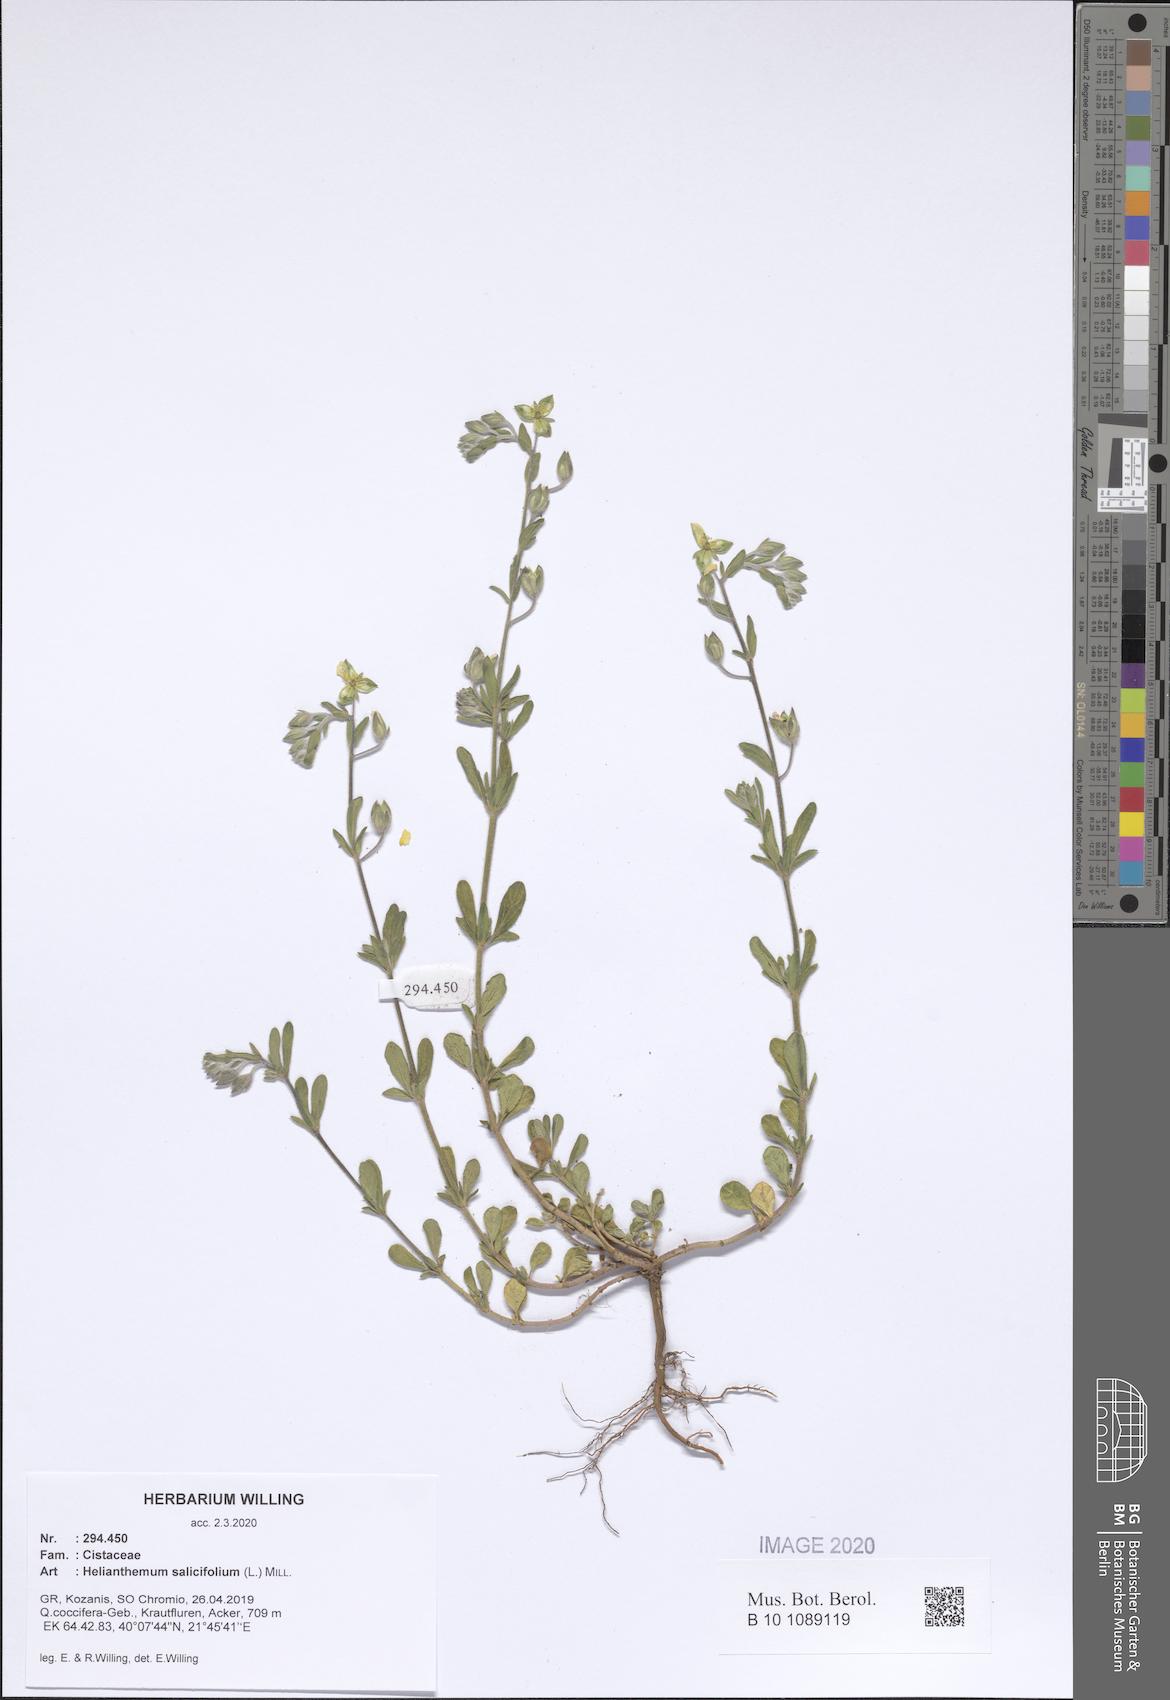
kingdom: Plantae
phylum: Tracheophyta
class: Magnoliopsida
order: Malvales
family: Cistaceae
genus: Helianthemum
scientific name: Helianthemum salicifolium
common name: Willowleaf frostweed
